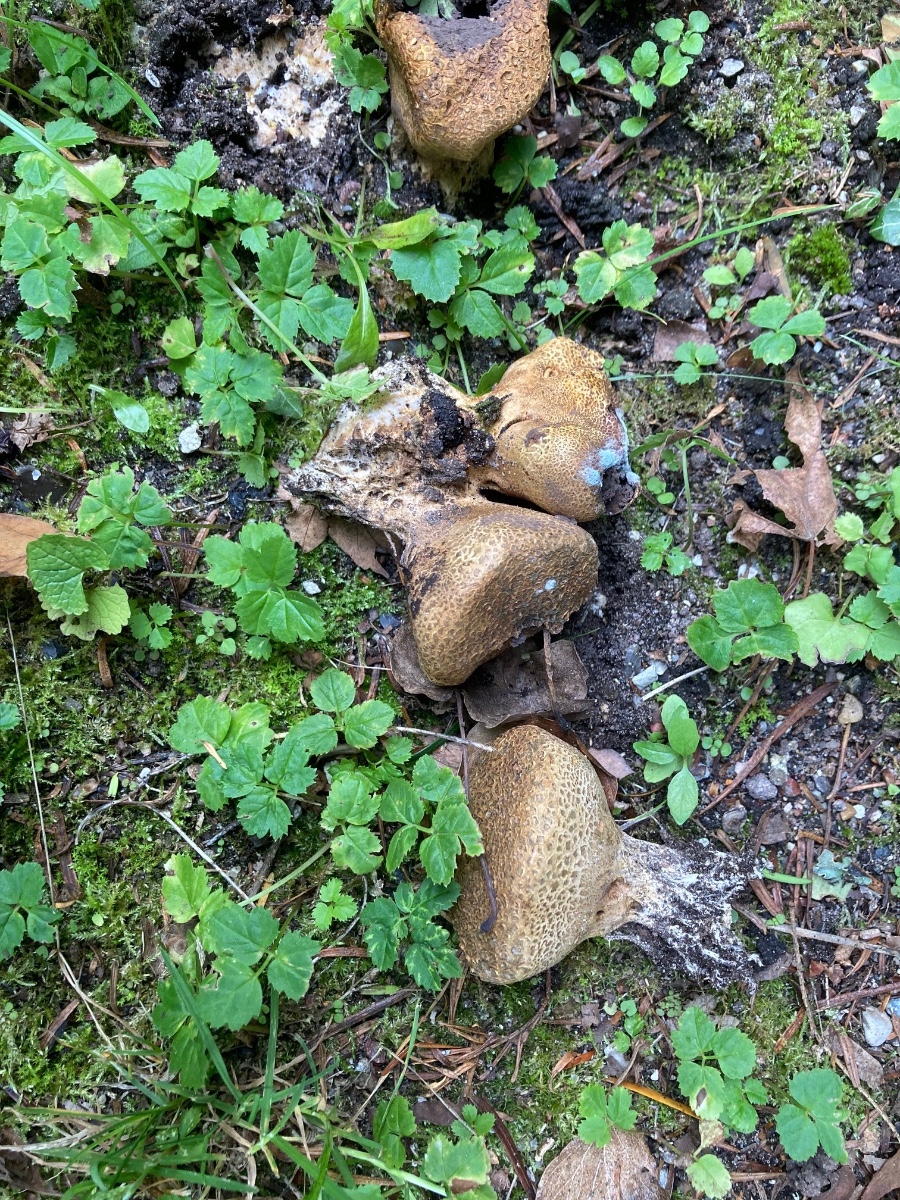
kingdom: Fungi
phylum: Basidiomycota
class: Agaricomycetes
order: Boletales
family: Sclerodermataceae
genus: Scleroderma
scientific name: Scleroderma verrucosum
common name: stilket bruskbold
